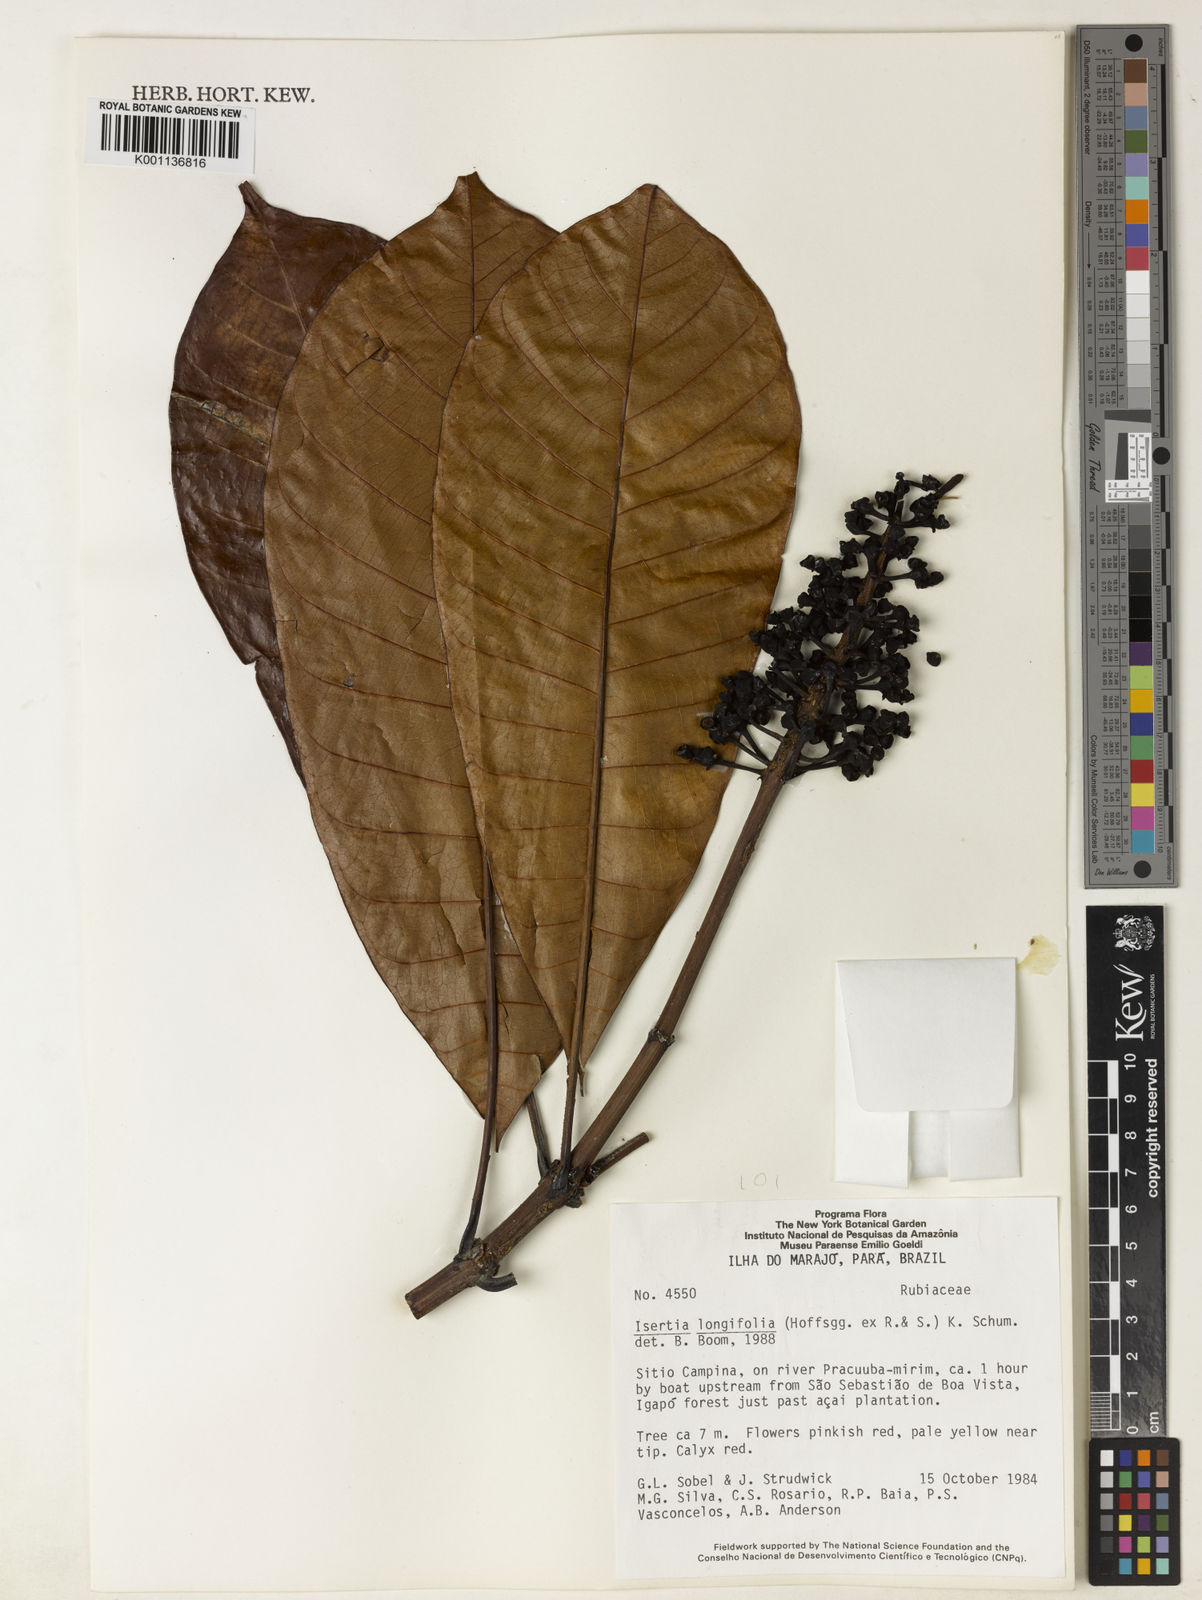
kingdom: Plantae
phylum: Tracheophyta
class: Magnoliopsida
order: Gentianales
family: Rubiaceae
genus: Isertia
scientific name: Isertia longifolia
